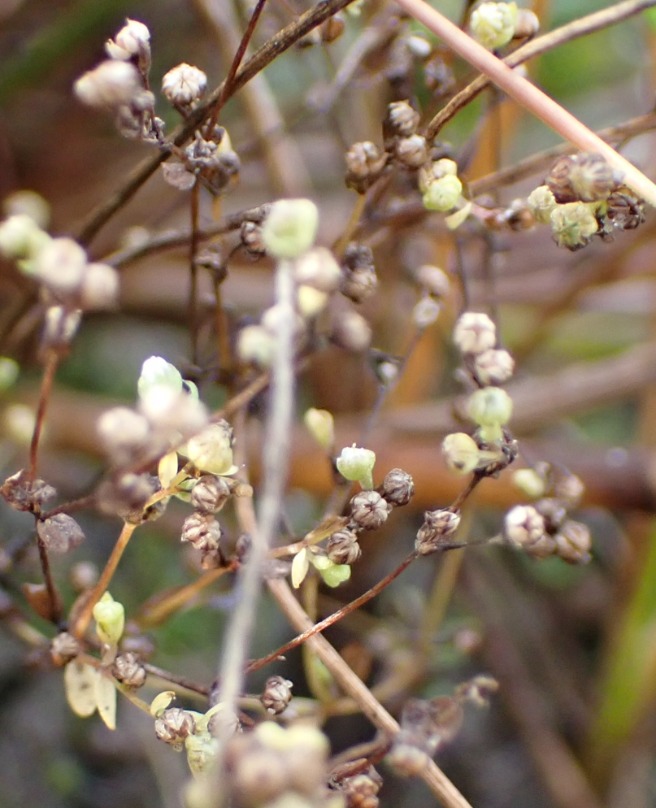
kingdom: Plantae
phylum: Tracheophyta
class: Magnoliopsida
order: Malpighiales
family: Linaceae
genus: Radiola
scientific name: Radiola linoides
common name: Tusindfrø
